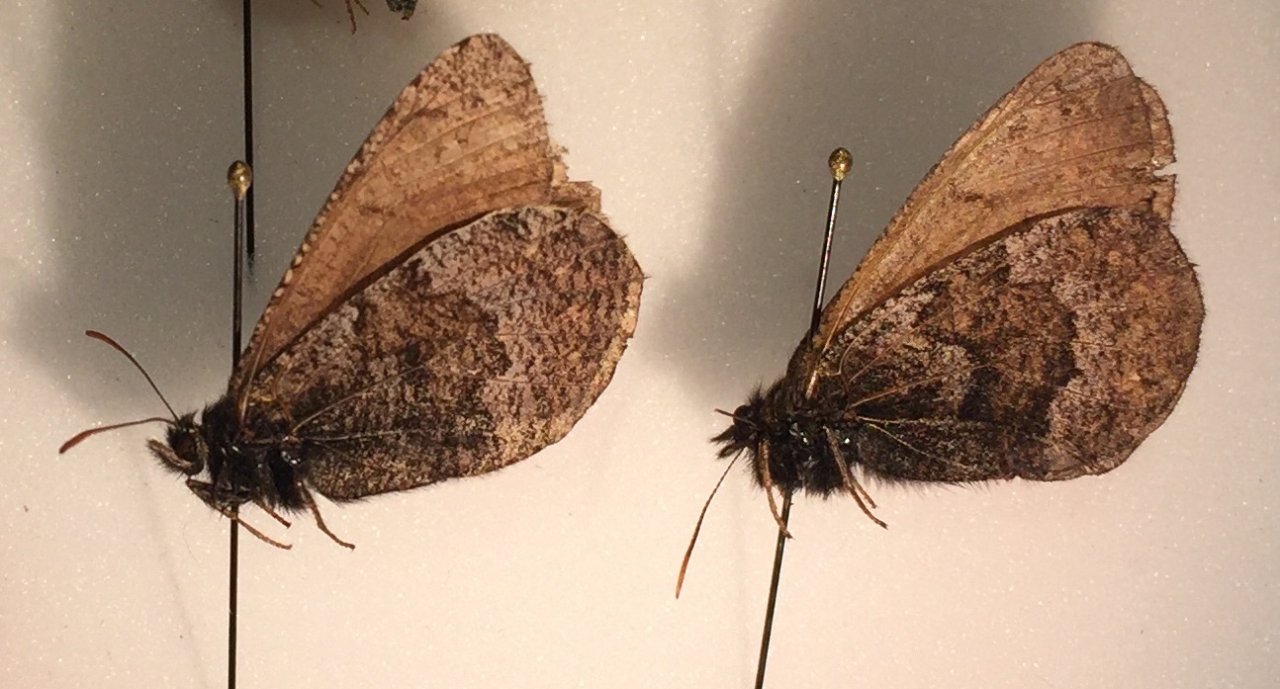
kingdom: Animalia
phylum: Arthropoda
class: Insecta
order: Lepidoptera
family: Nymphalidae
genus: Oeneis
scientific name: Oeneis bore
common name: Polixenes Arctic
